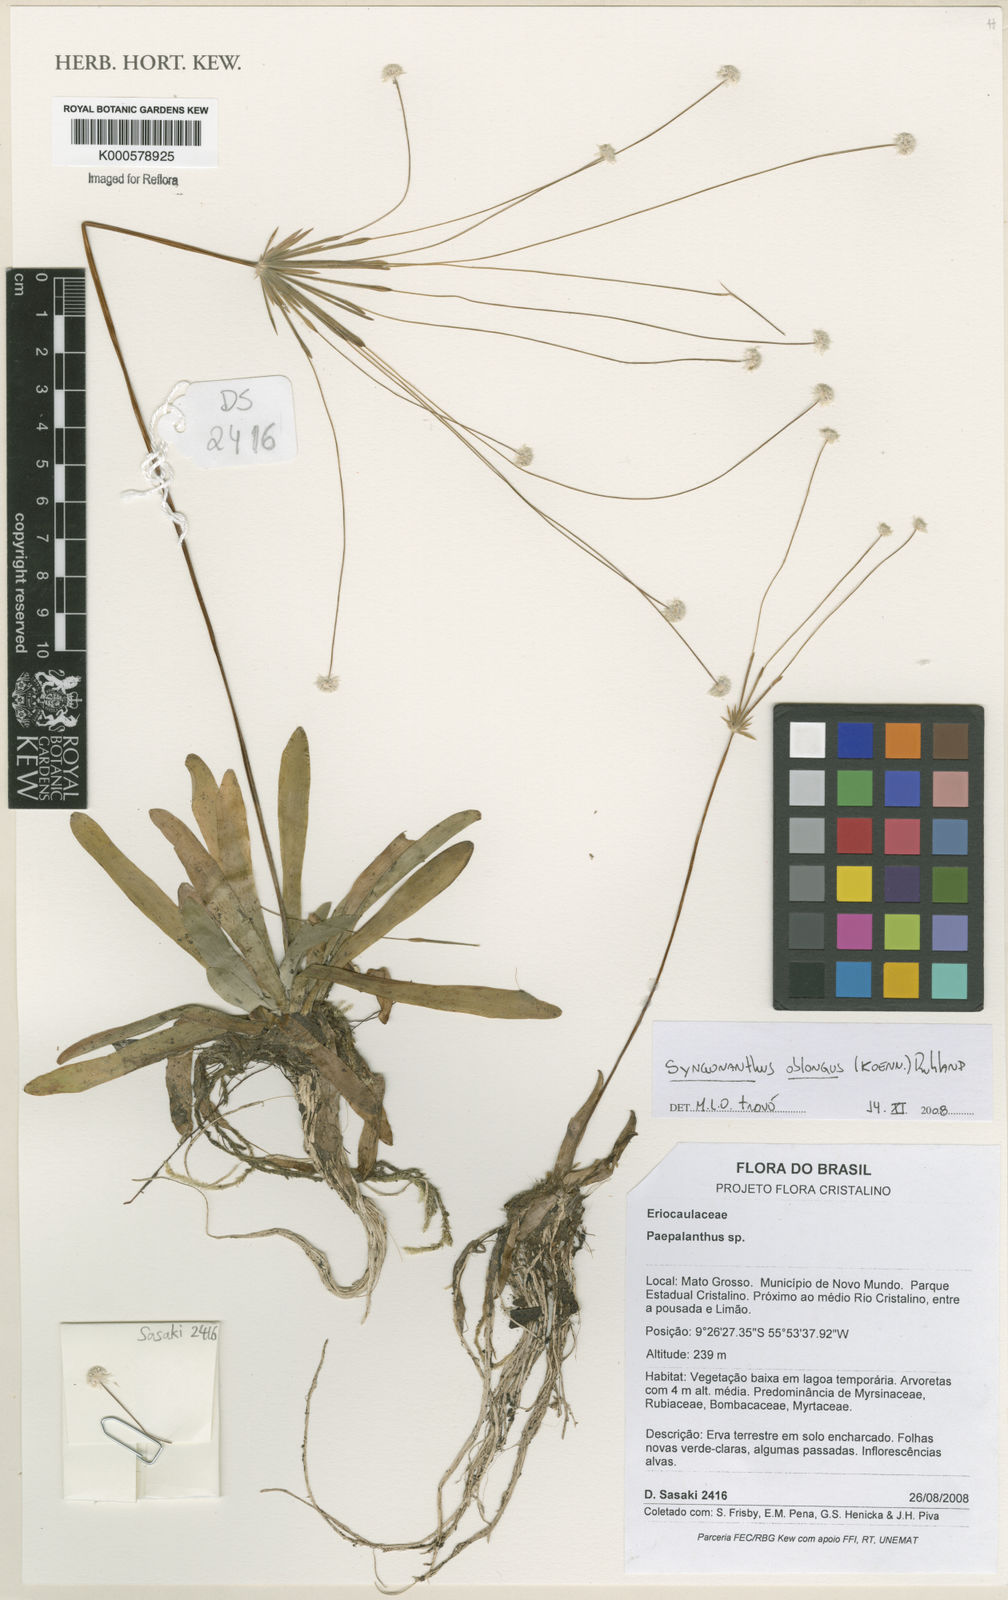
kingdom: Plantae
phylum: Tracheophyta
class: Liliopsida
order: Poales
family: Eriocaulaceae
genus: Syngonanthus
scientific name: Syngonanthus oblongus
